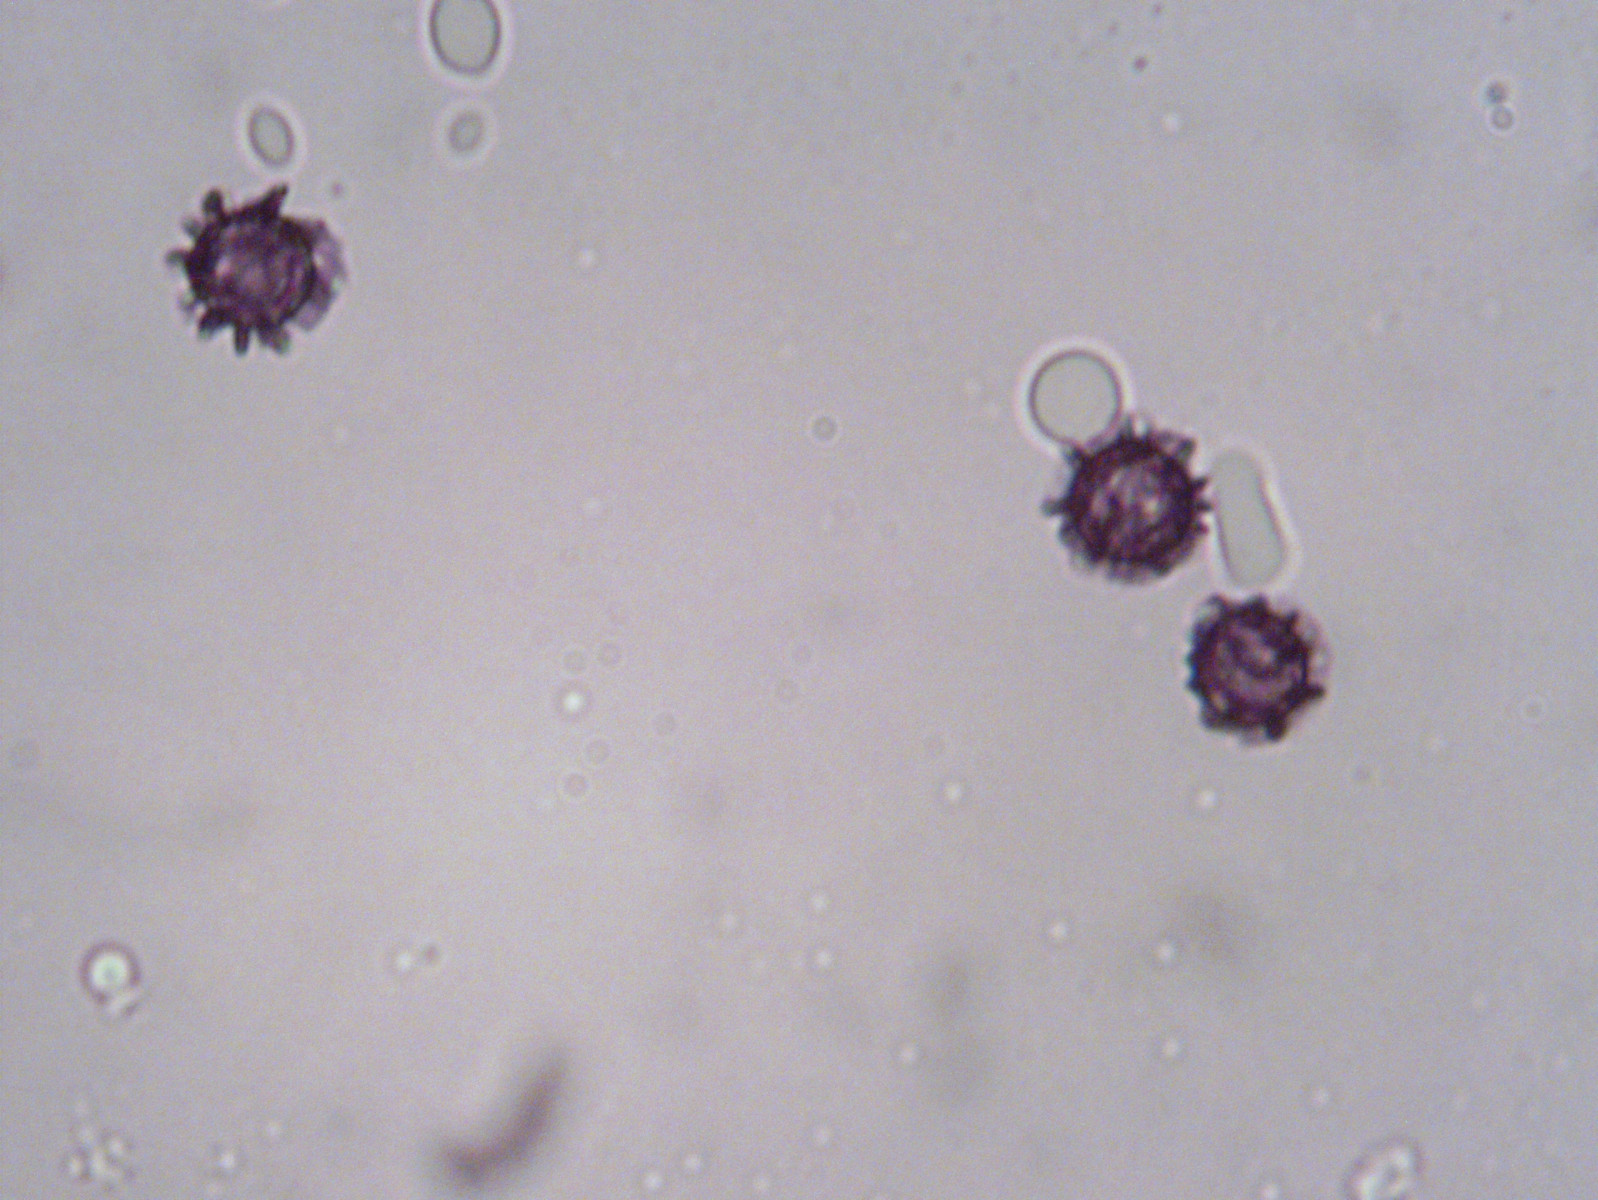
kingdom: Fungi
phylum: Basidiomycota
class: Agaricomycetes
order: Russulales
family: Russulaceae
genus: Lactarius
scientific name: Lactarius pterosporus
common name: vingesporet mælkehat
